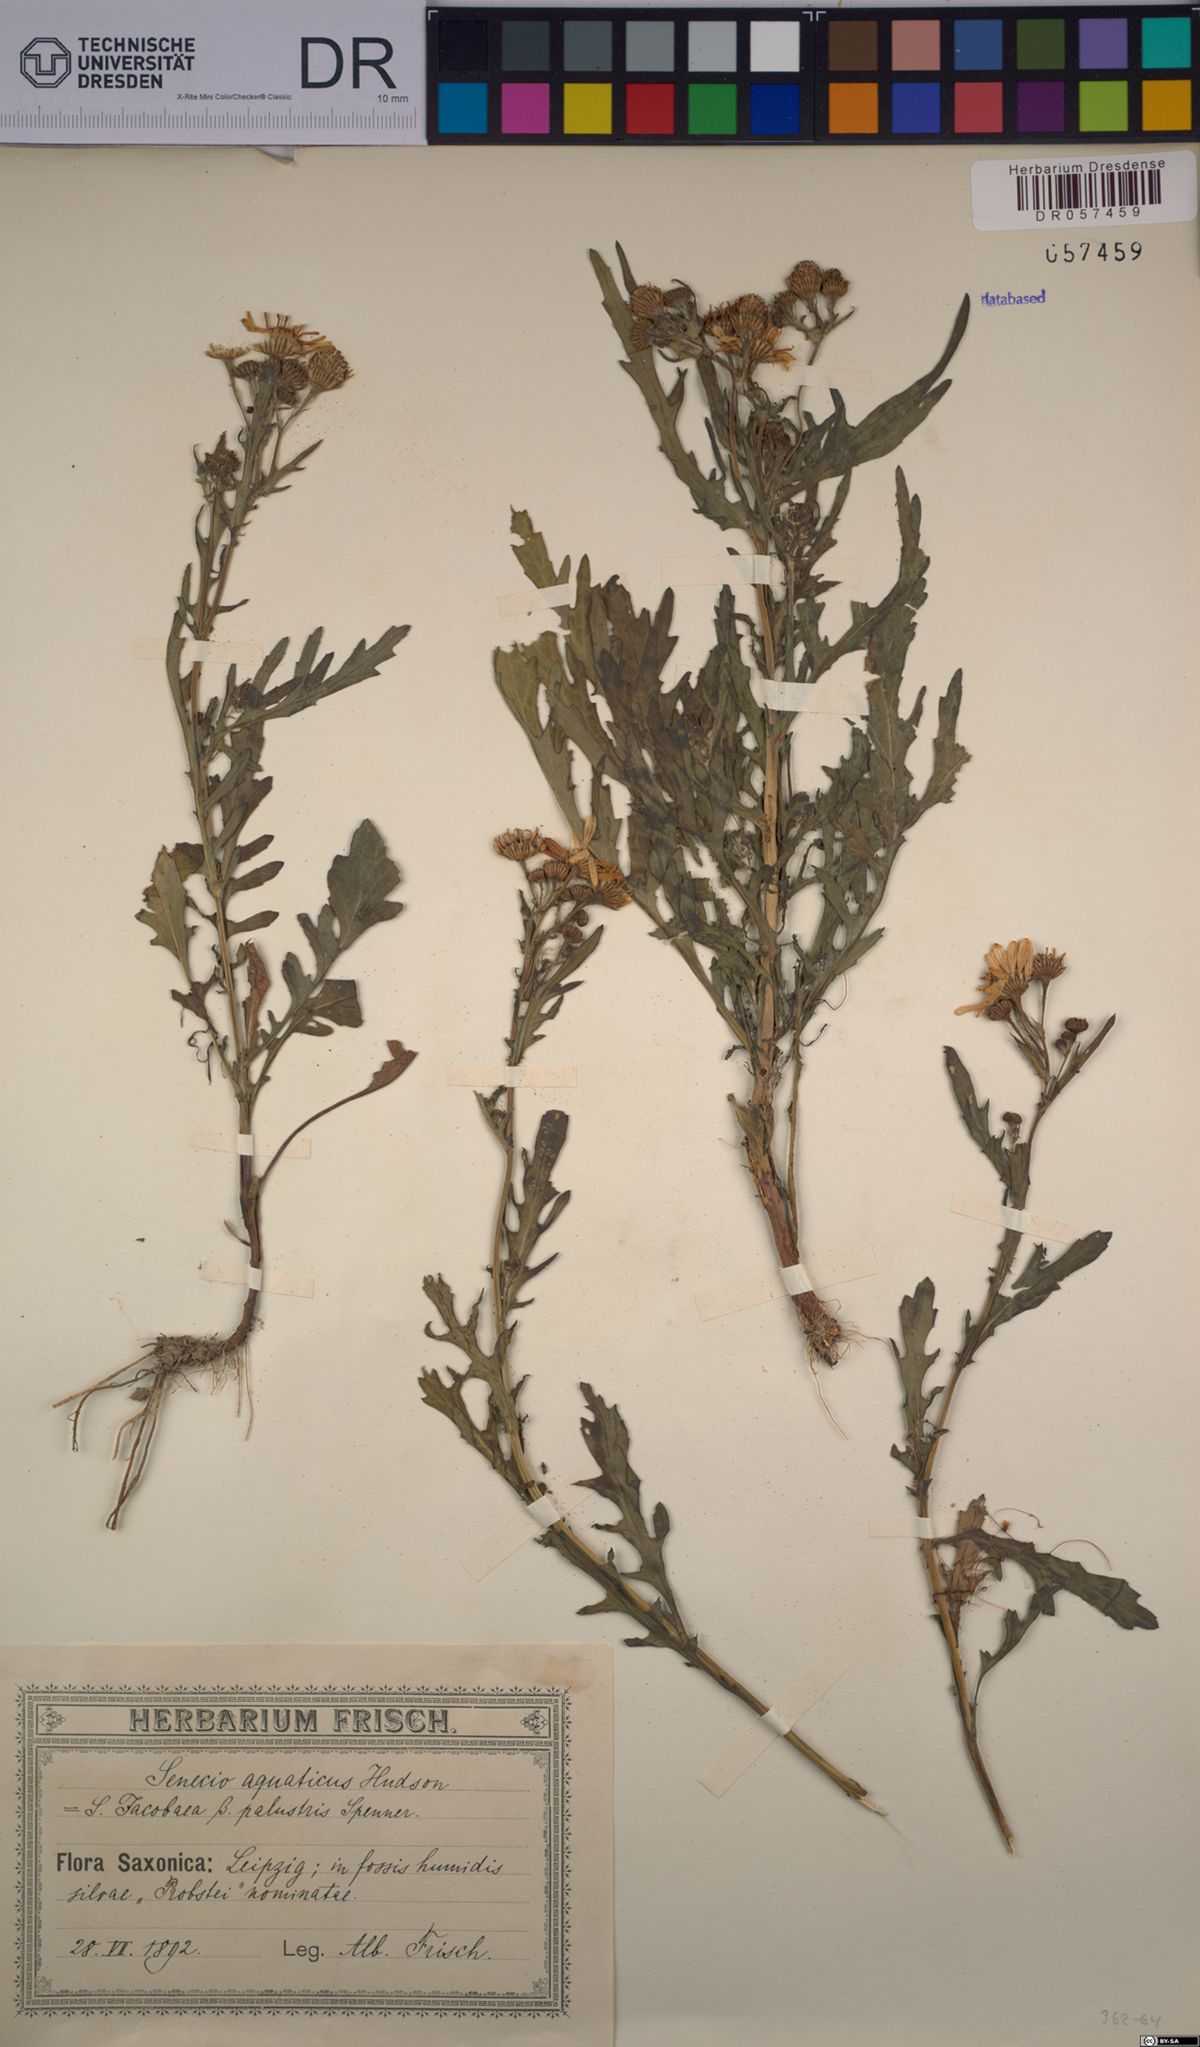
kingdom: Plantae
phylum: Tracheophyta
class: Magnoliopsida
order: Asterales
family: Asteraceae
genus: Jacobaea
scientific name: Jacobaea aquatica
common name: Water ragwort
